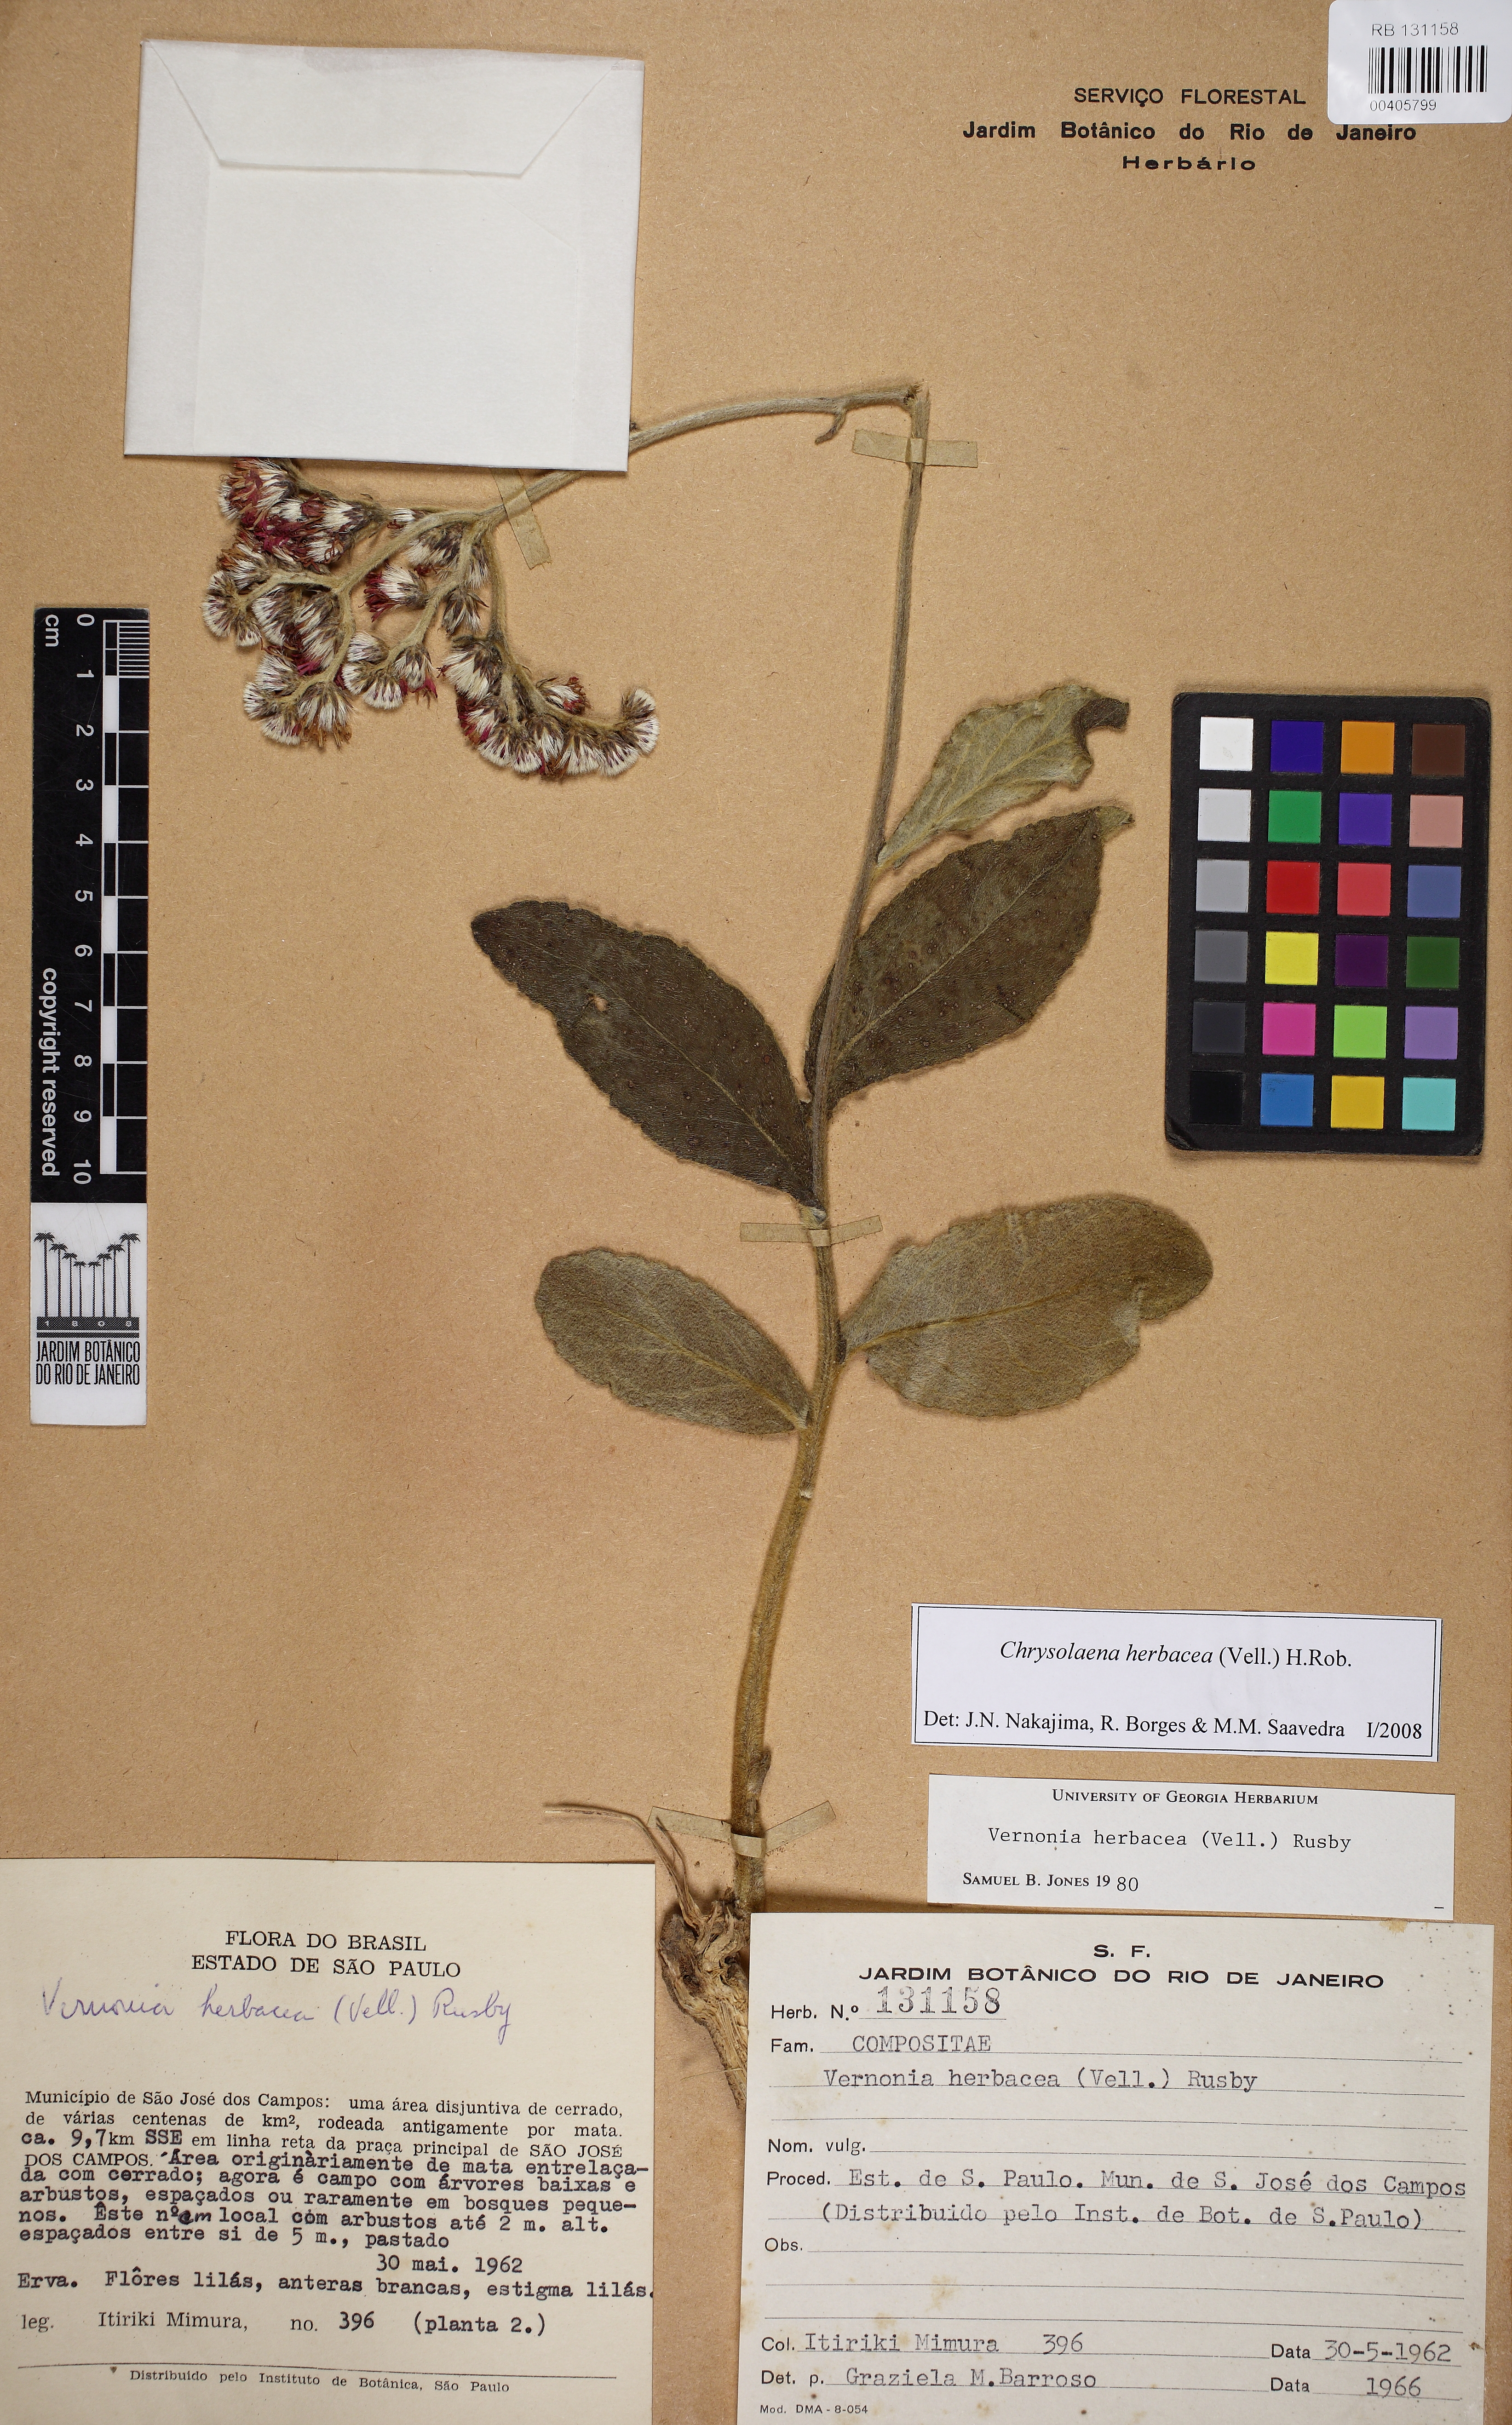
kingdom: Plantae
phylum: Tracheophyta
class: Magnoliopsida
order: Asterales
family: Asteraceae
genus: Chrysolaena
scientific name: Chrysolaena obovata
